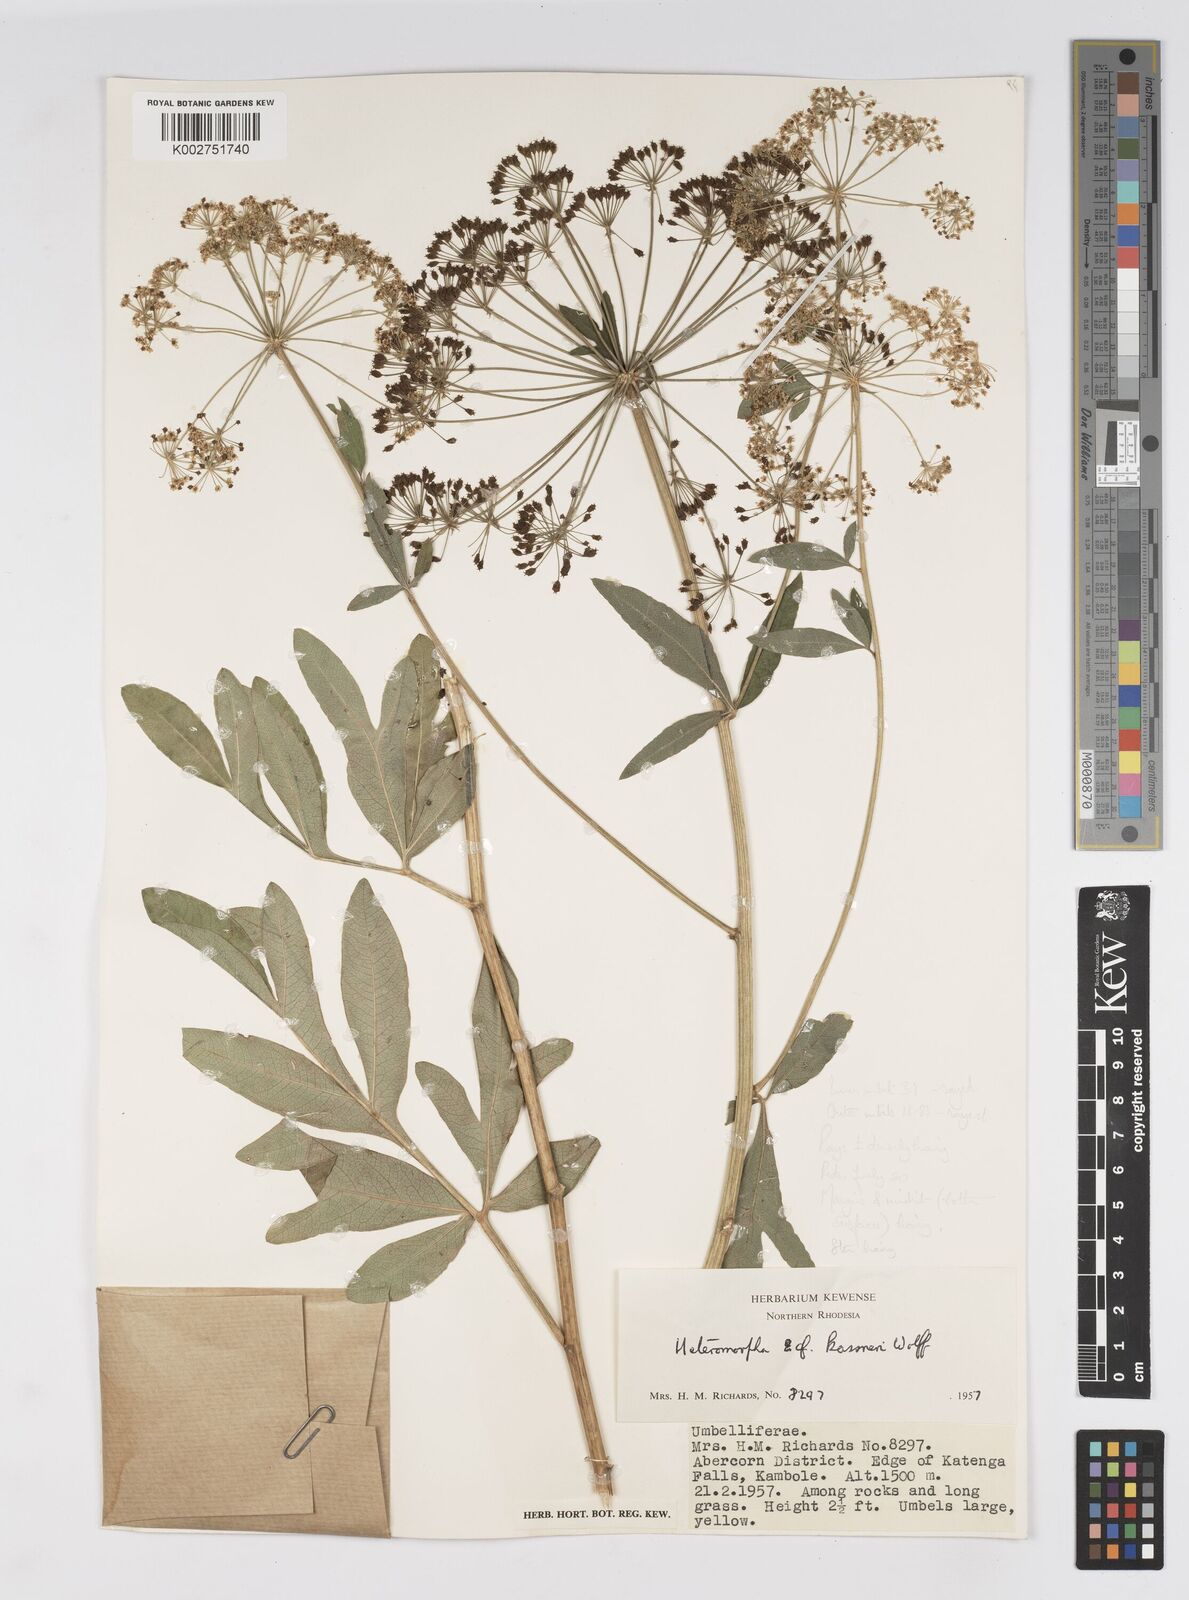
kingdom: Plantae
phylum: Tracheophyta
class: Magnoliopsida
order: Apiales
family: Apiaceae
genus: Heteromorpha
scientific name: Heteromorpha involucrata
